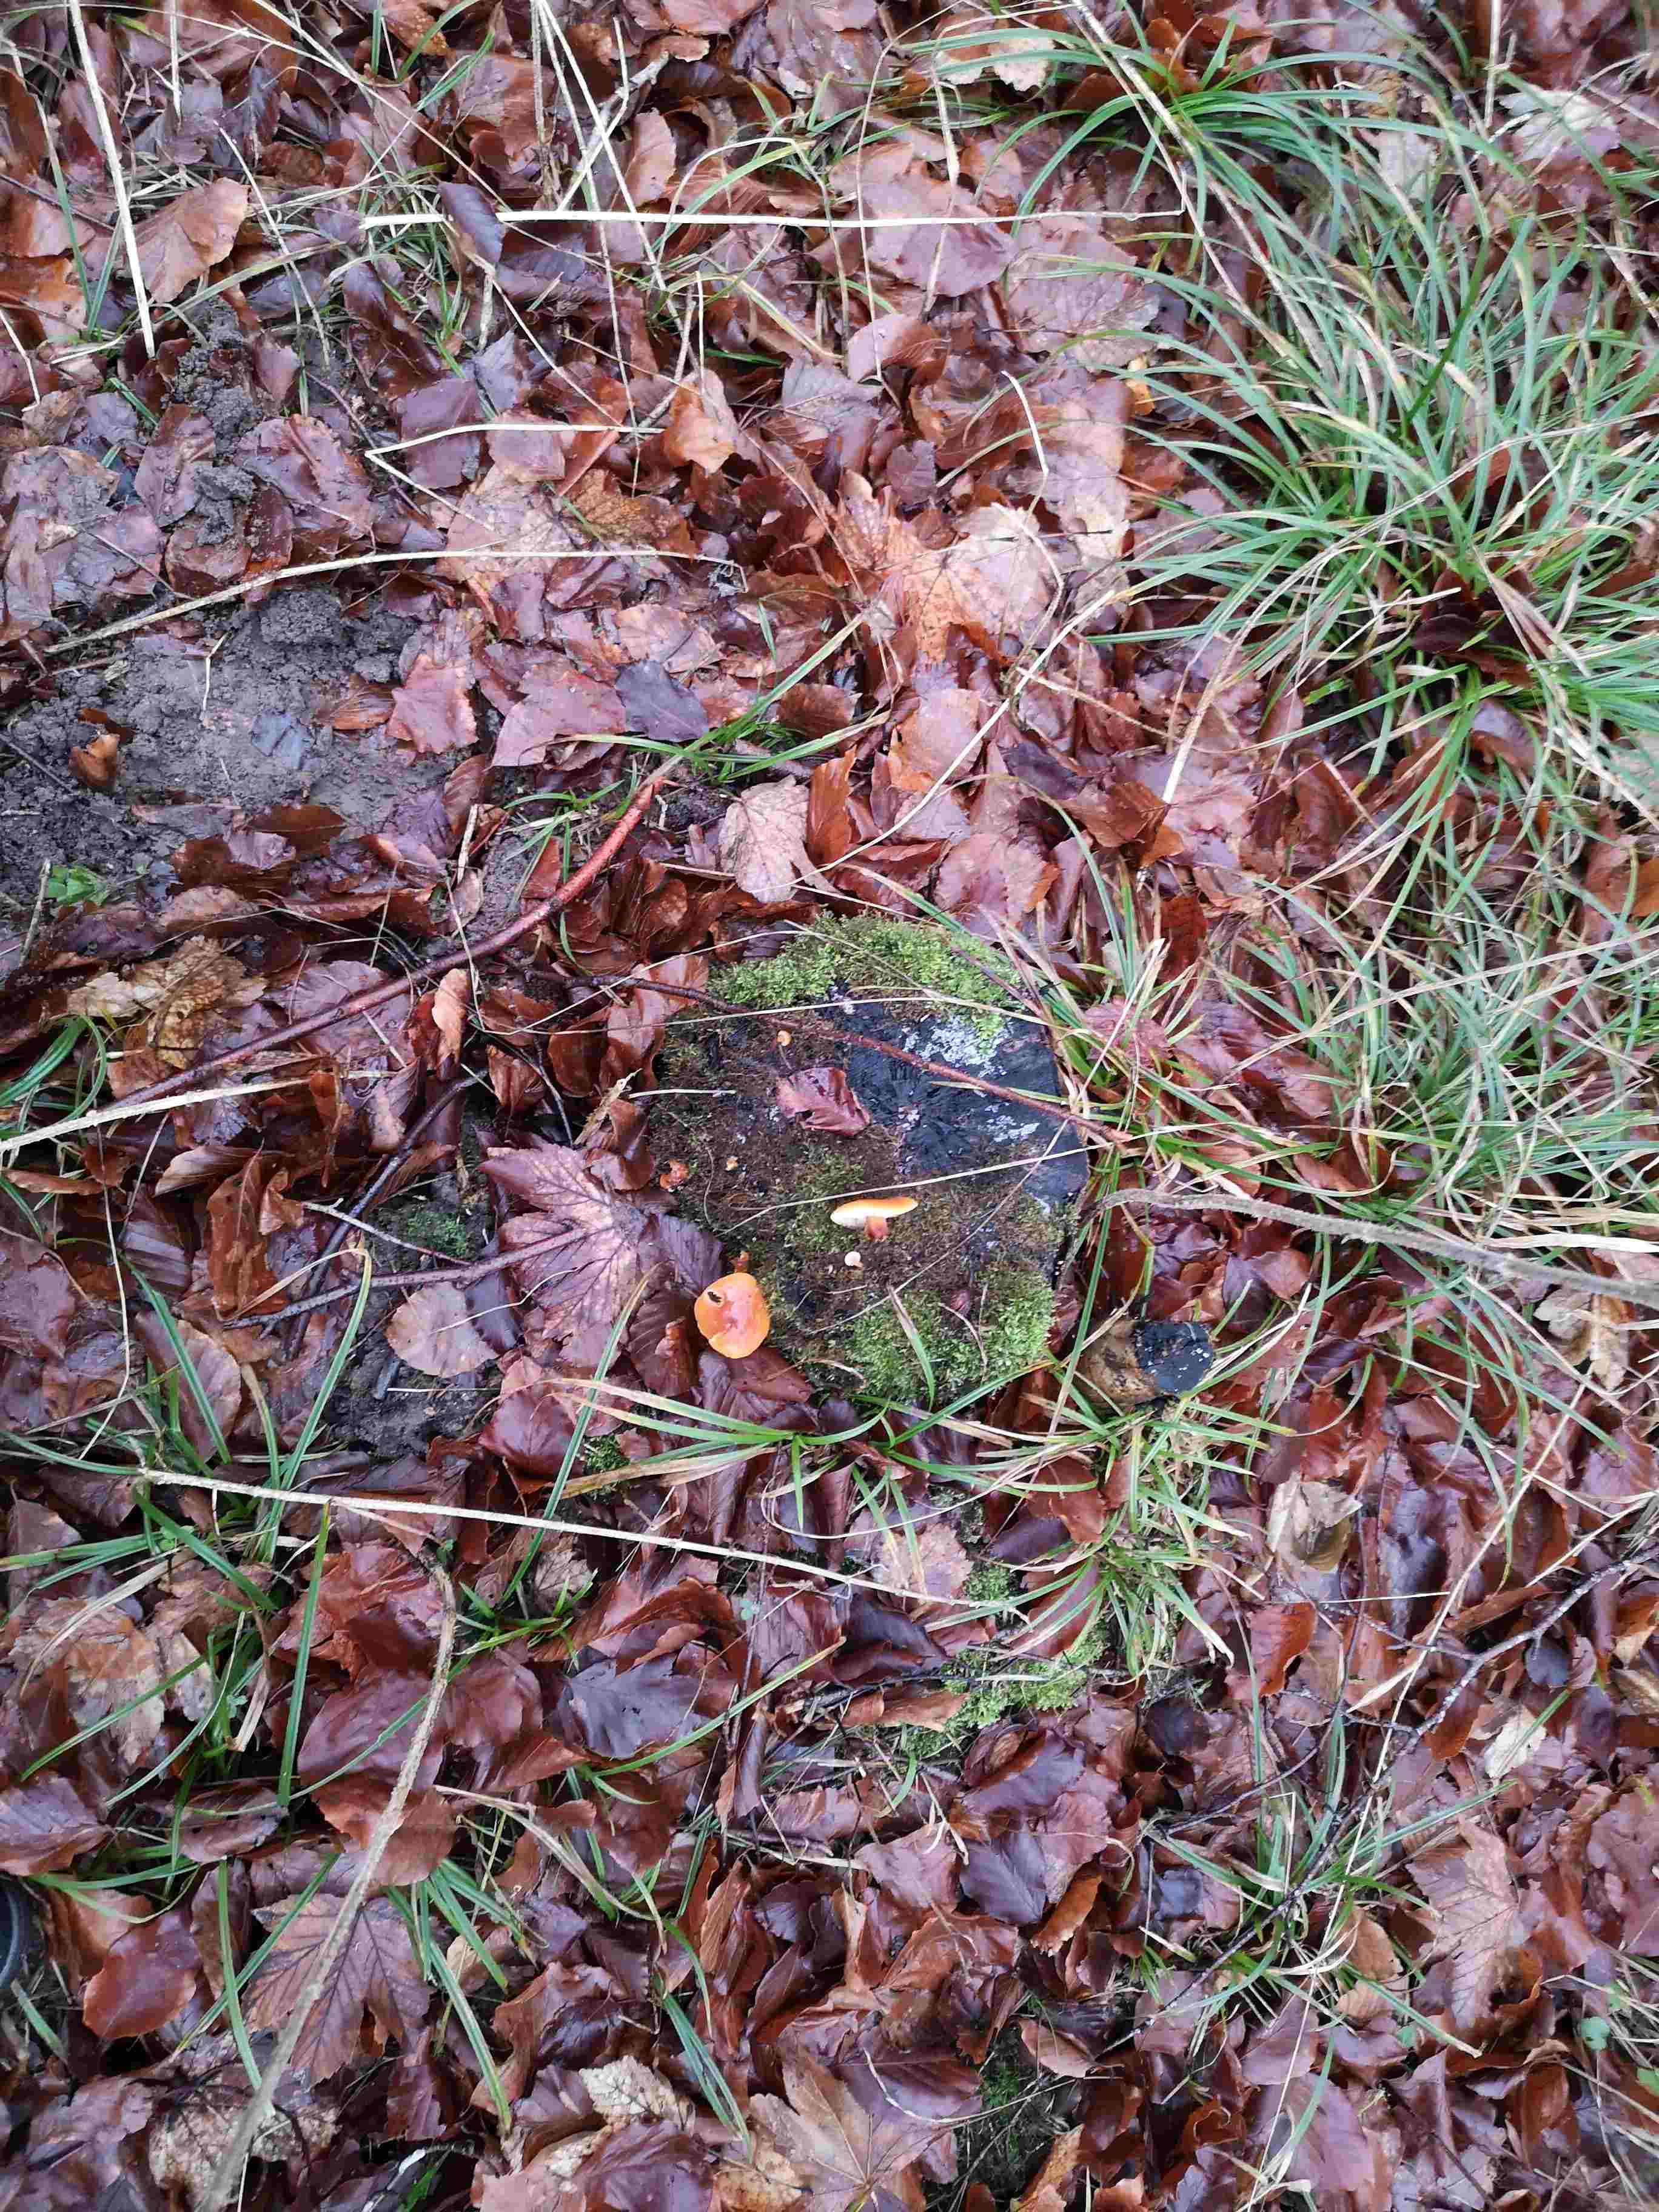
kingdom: Fungi
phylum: Basidiomycota
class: Agaricomycetes
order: Agaricales
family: Physalacriaceae
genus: Flammulina
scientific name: Flammulina
